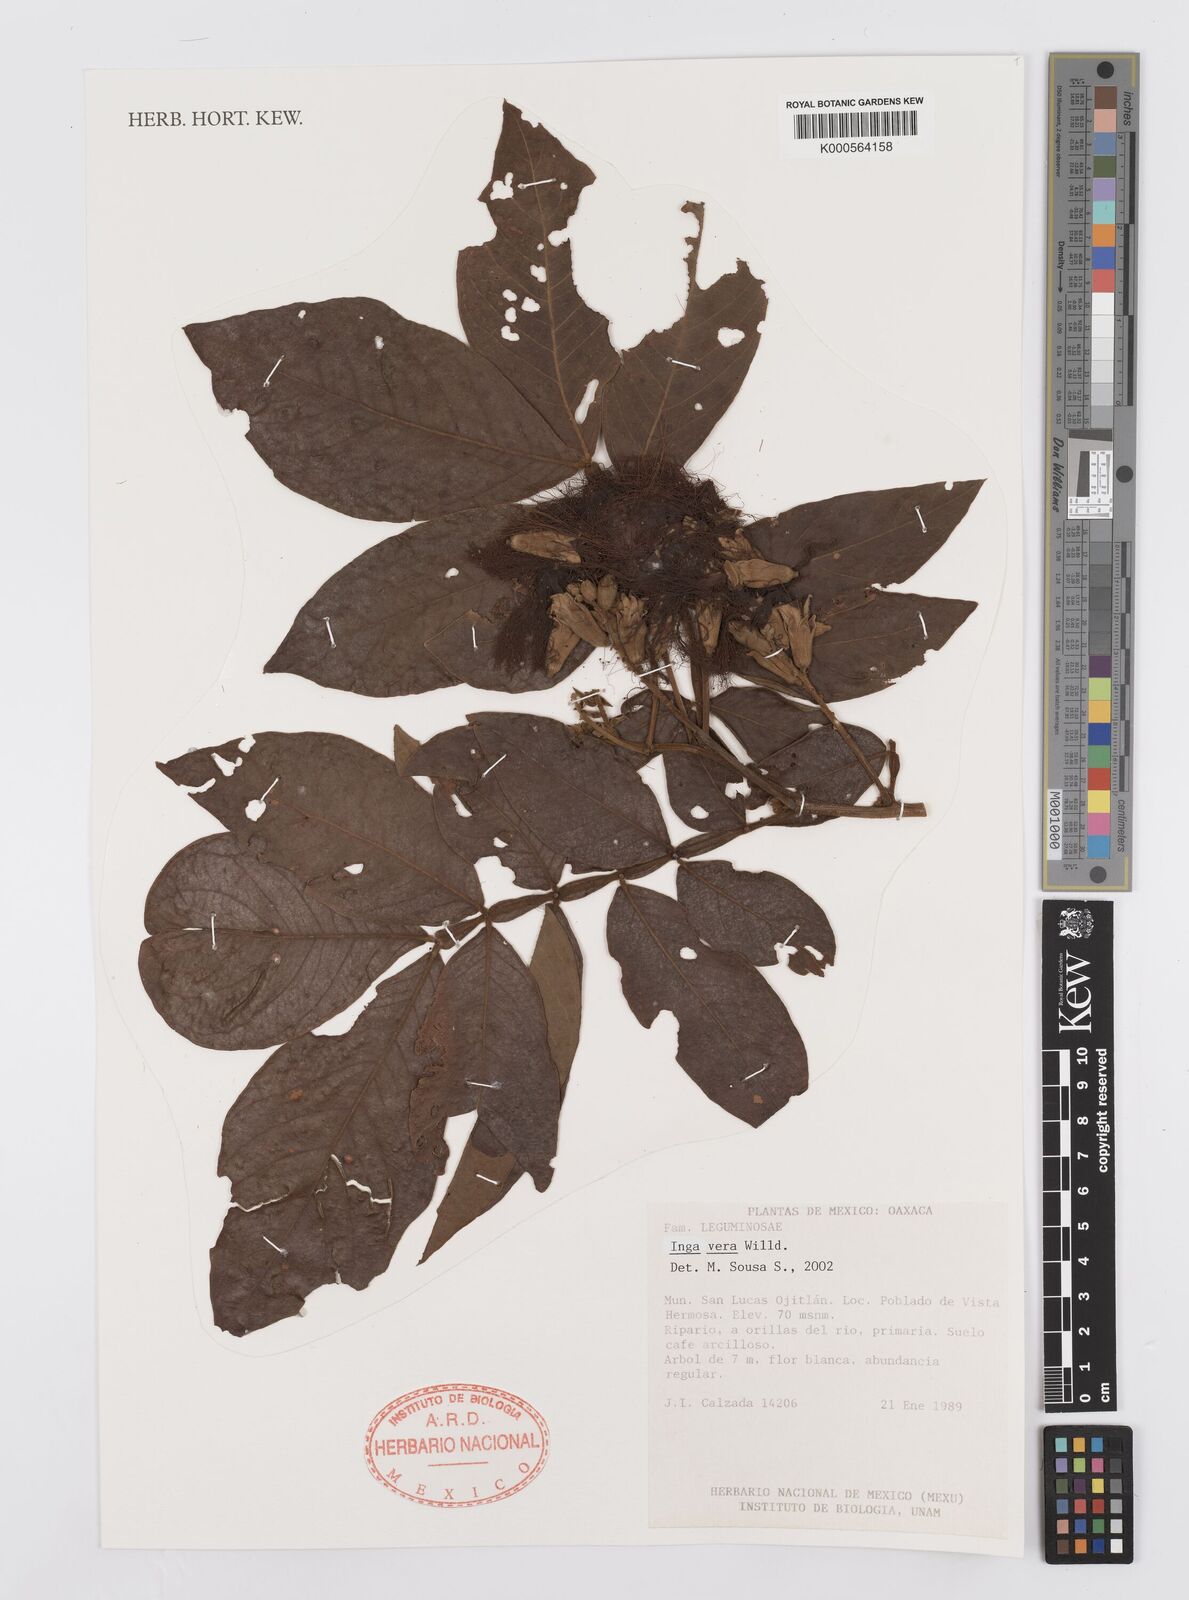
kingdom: Plantae
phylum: Tracheophyta
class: Magnoliopsida
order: Fabales
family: Fabaceae
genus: Inga
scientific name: Inga vera
